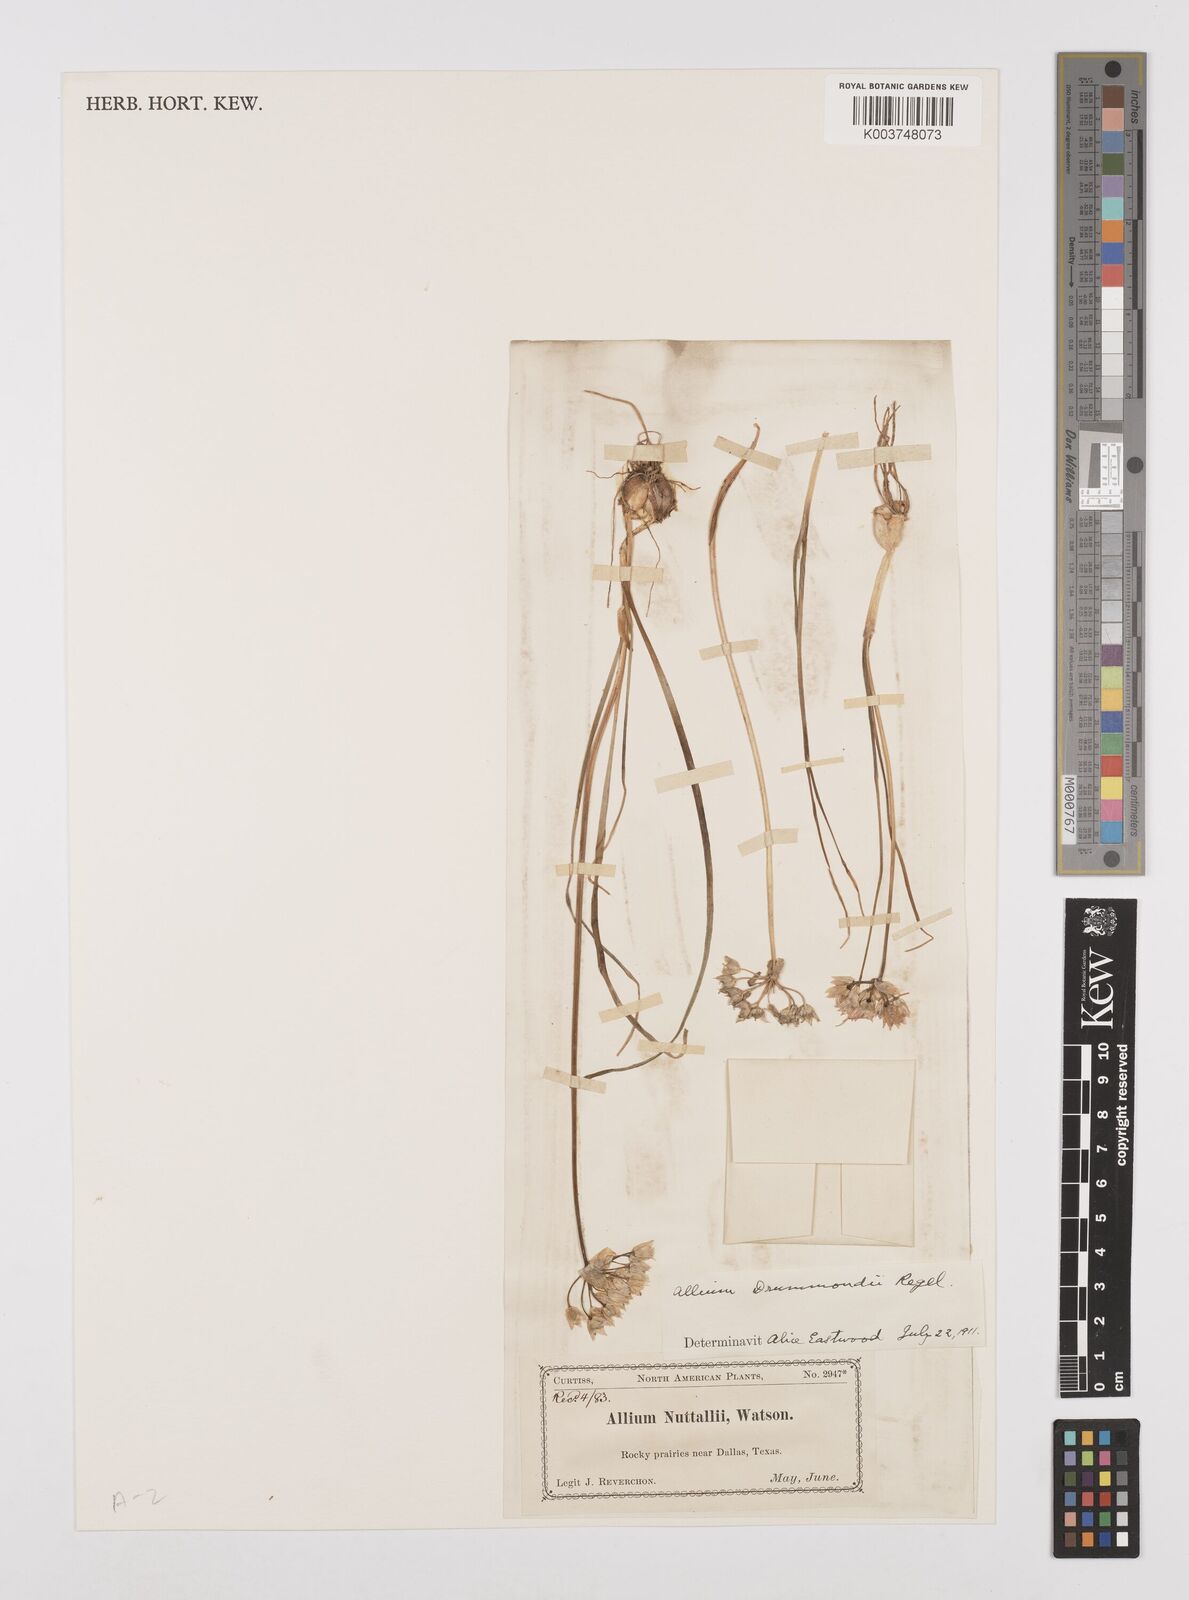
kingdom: Plantae
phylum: Tracheophyta
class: Liliopsida
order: Asparagales
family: Amaryllidaceae
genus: Allium
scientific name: Allium drummondii
